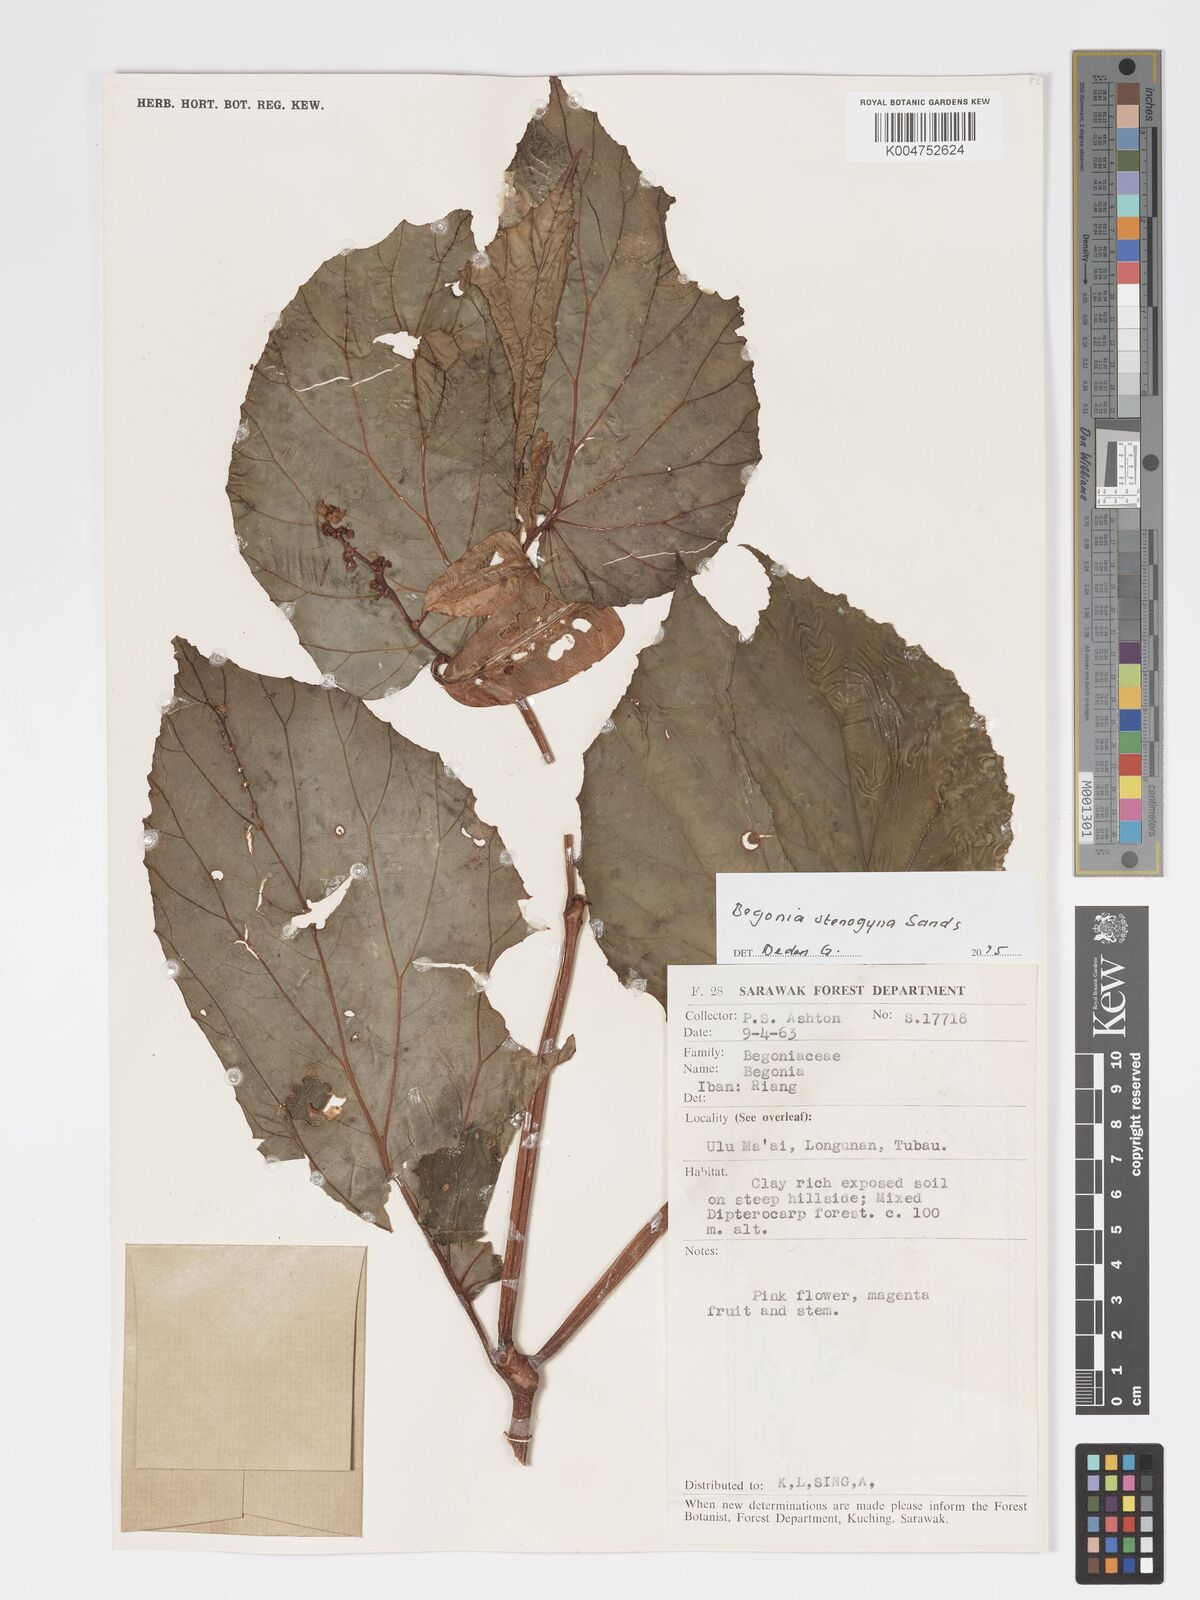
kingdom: Plantae
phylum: Tracheophyta
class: Magnoliopsida
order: Cucurbitales
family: Begoniaceae
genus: Begonia
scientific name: Begonia stenogyna
